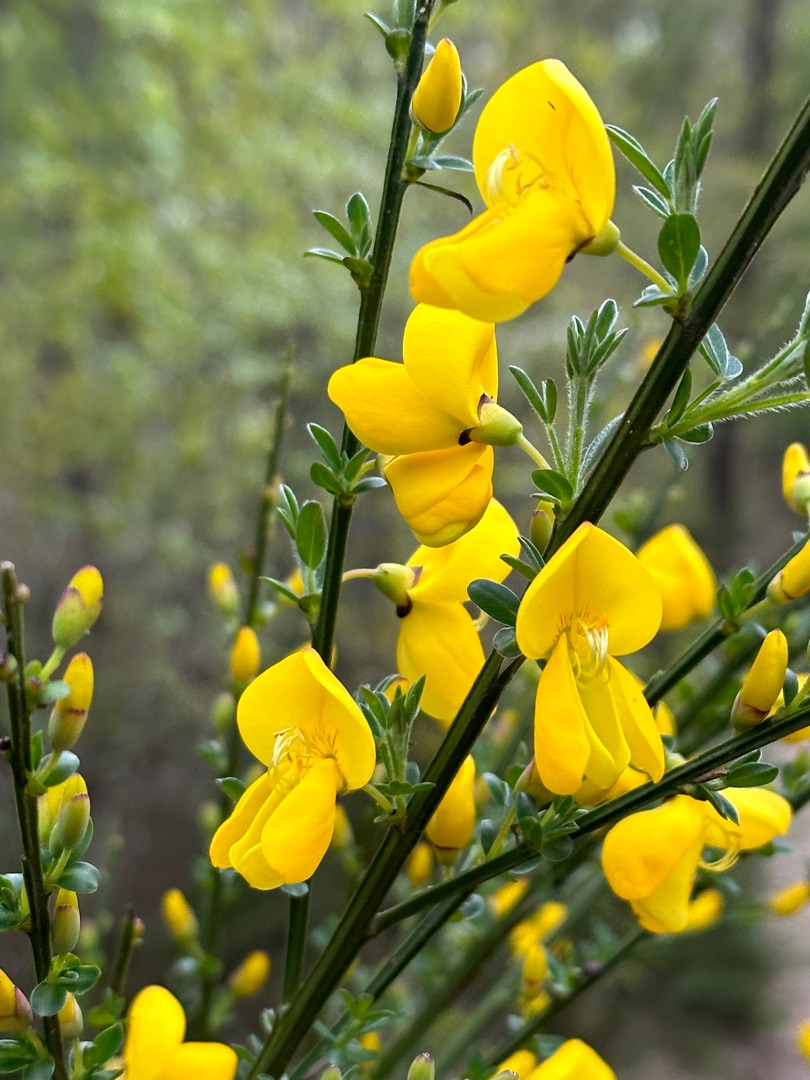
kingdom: Plantae
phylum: Tracheophyta
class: Magnoliopsida
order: Fabales
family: Fabaceae
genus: Cytisus
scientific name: Cytisus scoparius
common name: Almindelig gyvel
